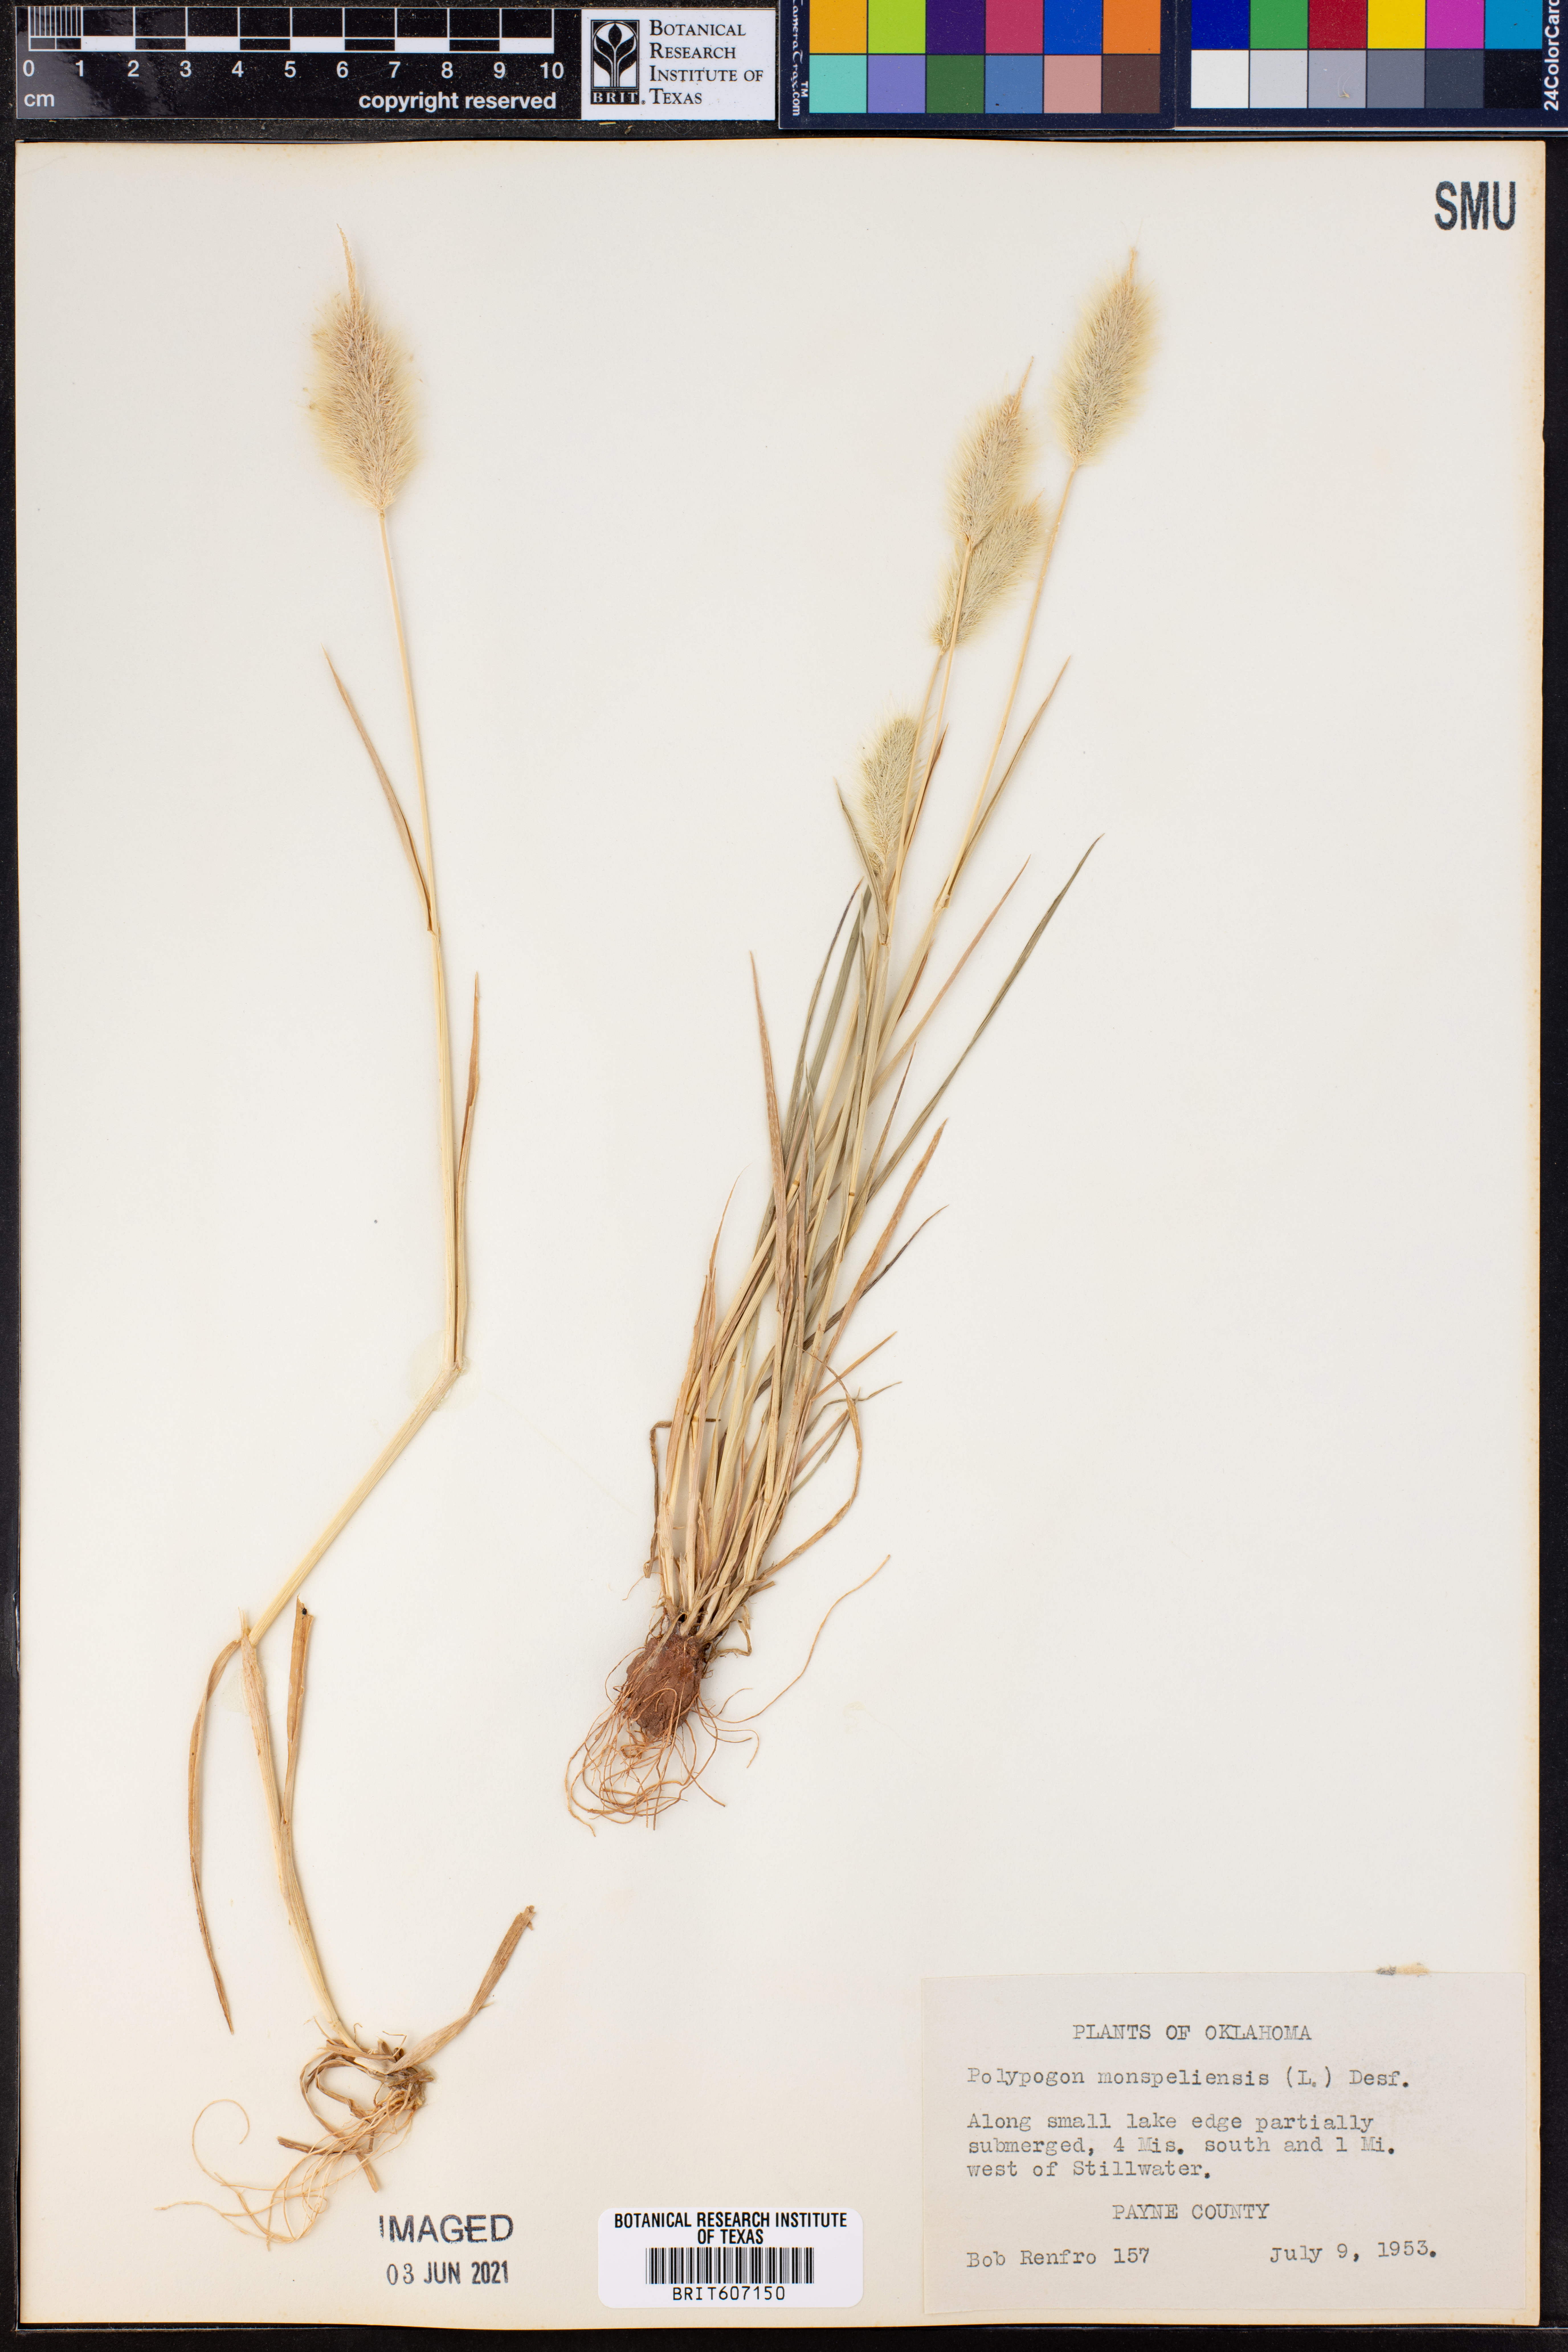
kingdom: Plantae
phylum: Tracheophyta
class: Liliopsida
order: Poales
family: Poaceae
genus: Polypogon
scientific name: Polypogon monspeliensis
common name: Annual rabbitsfoot grass
